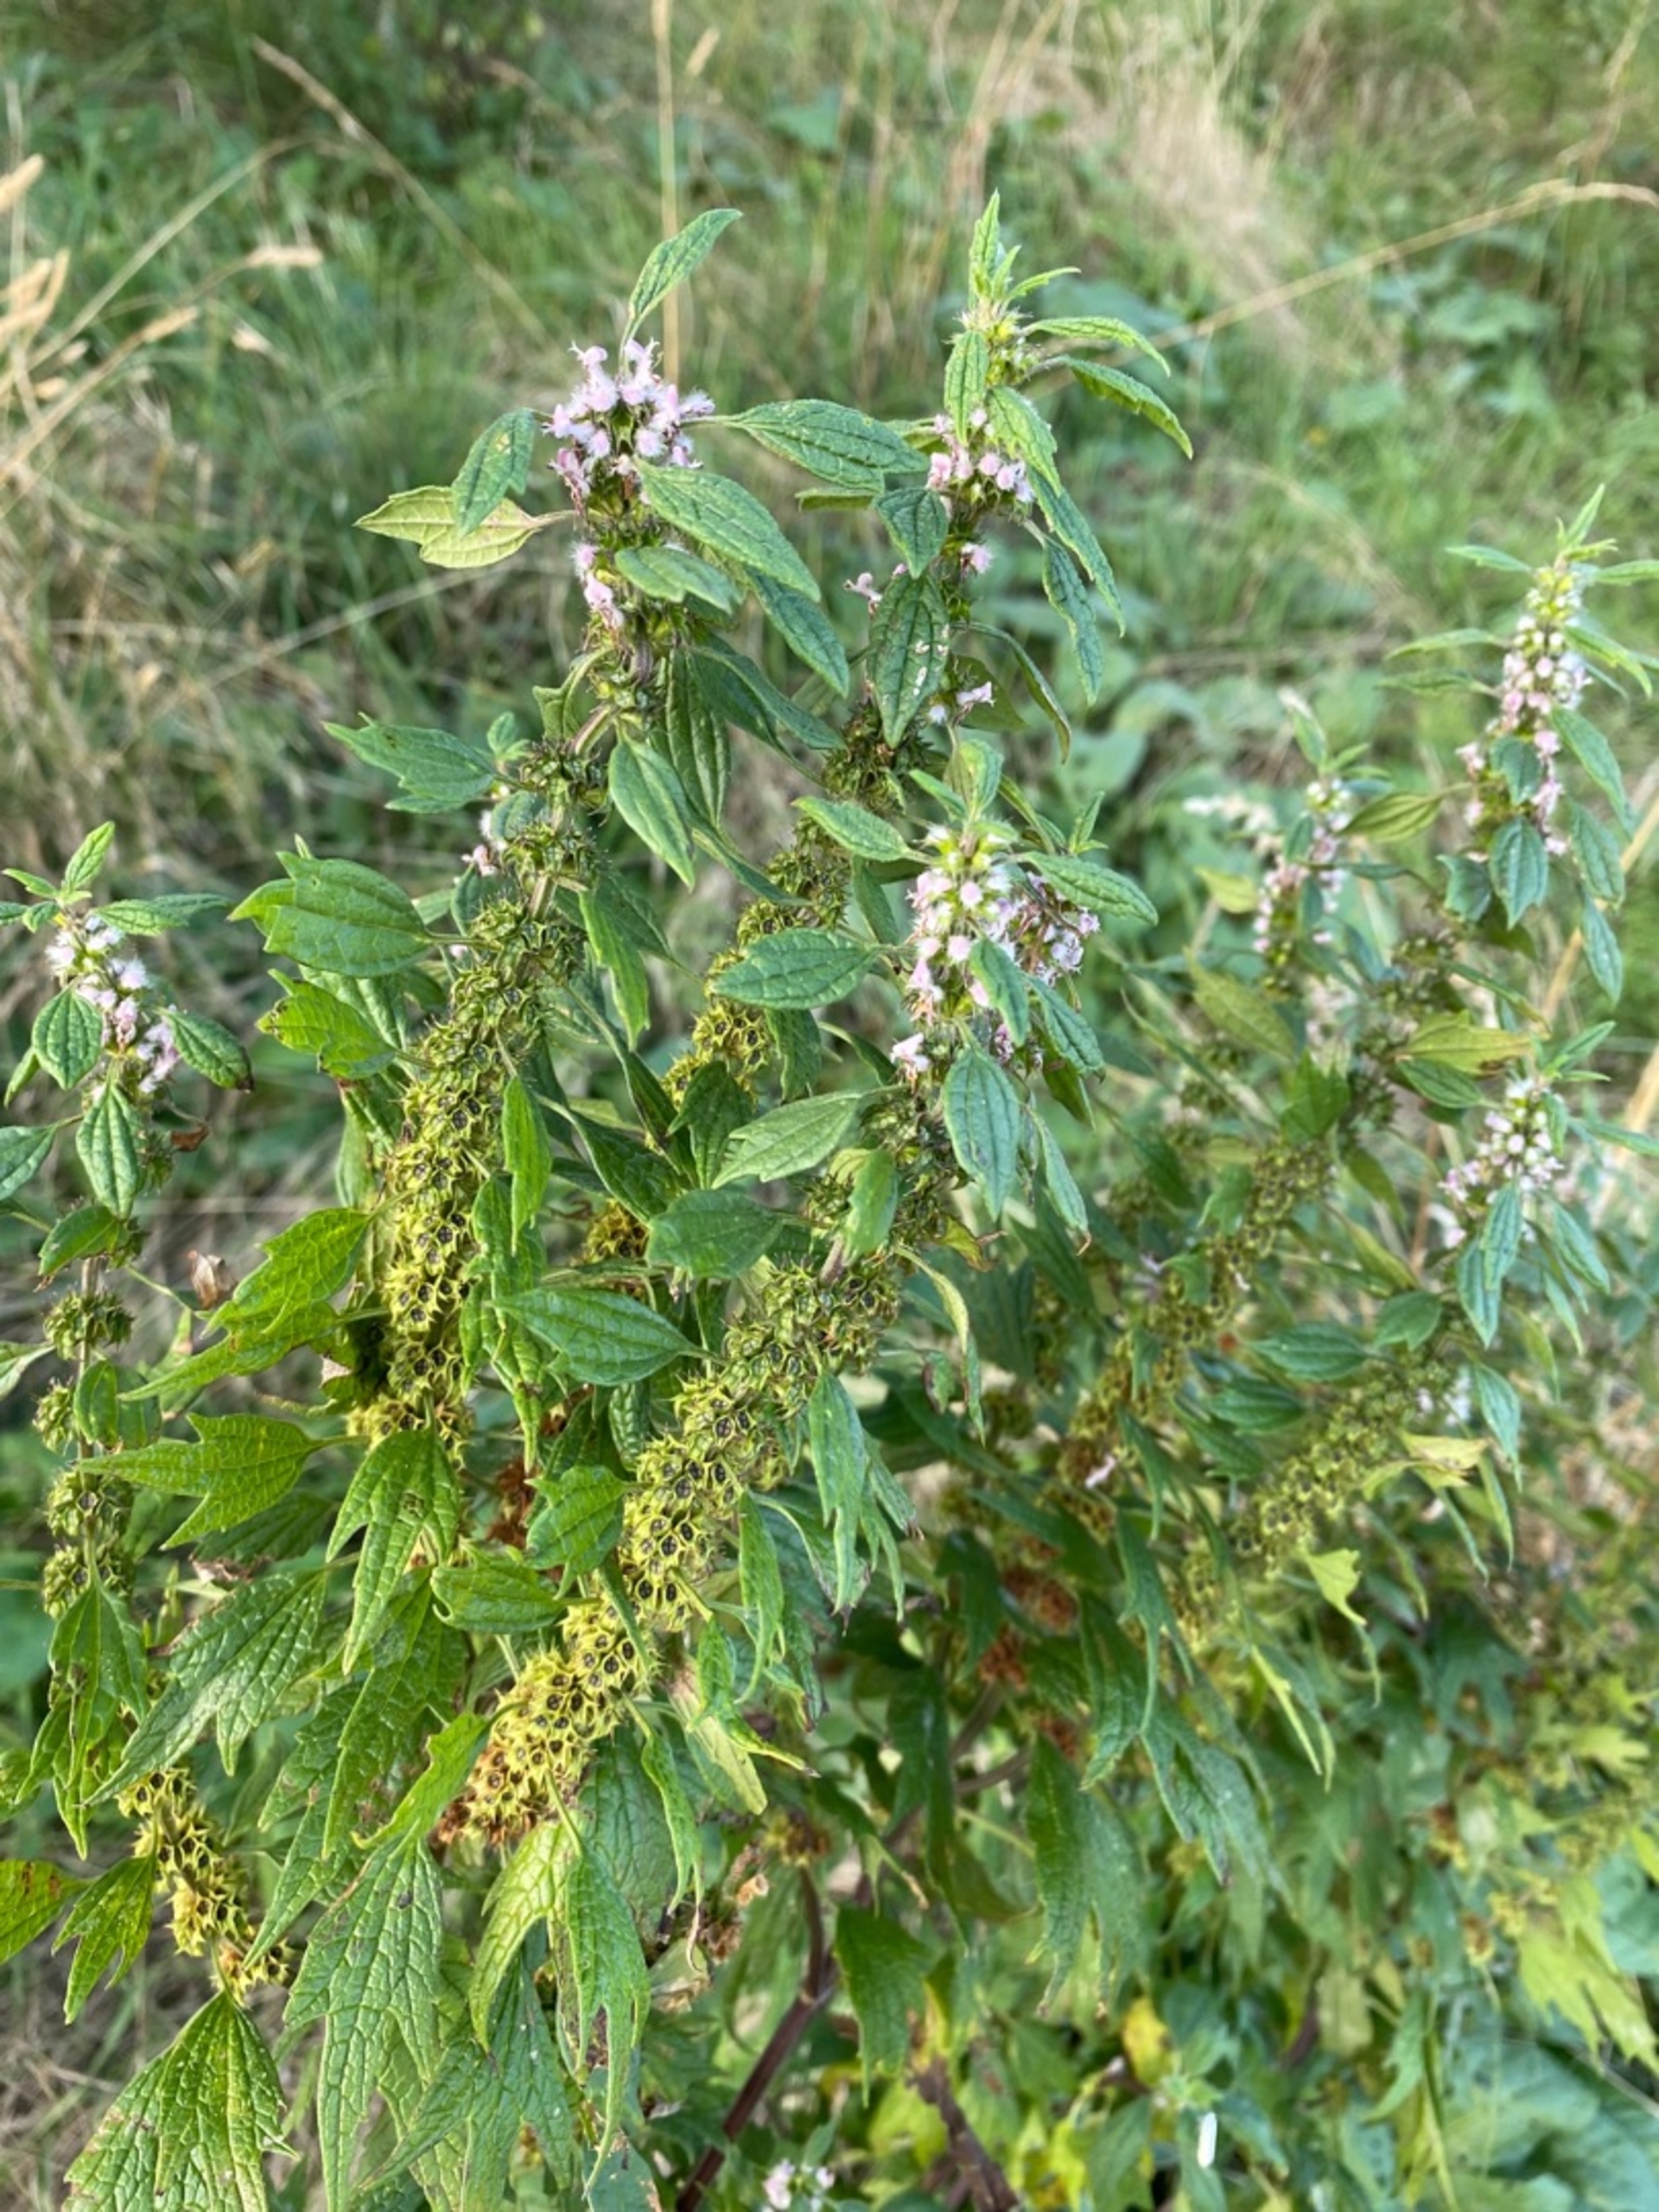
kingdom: Plantae
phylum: Tracheophyta
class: Magnoliopsida
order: Lamiales
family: Lamiaceae
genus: Leonurus
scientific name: Leonurus cardiaca
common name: Hjertespand
